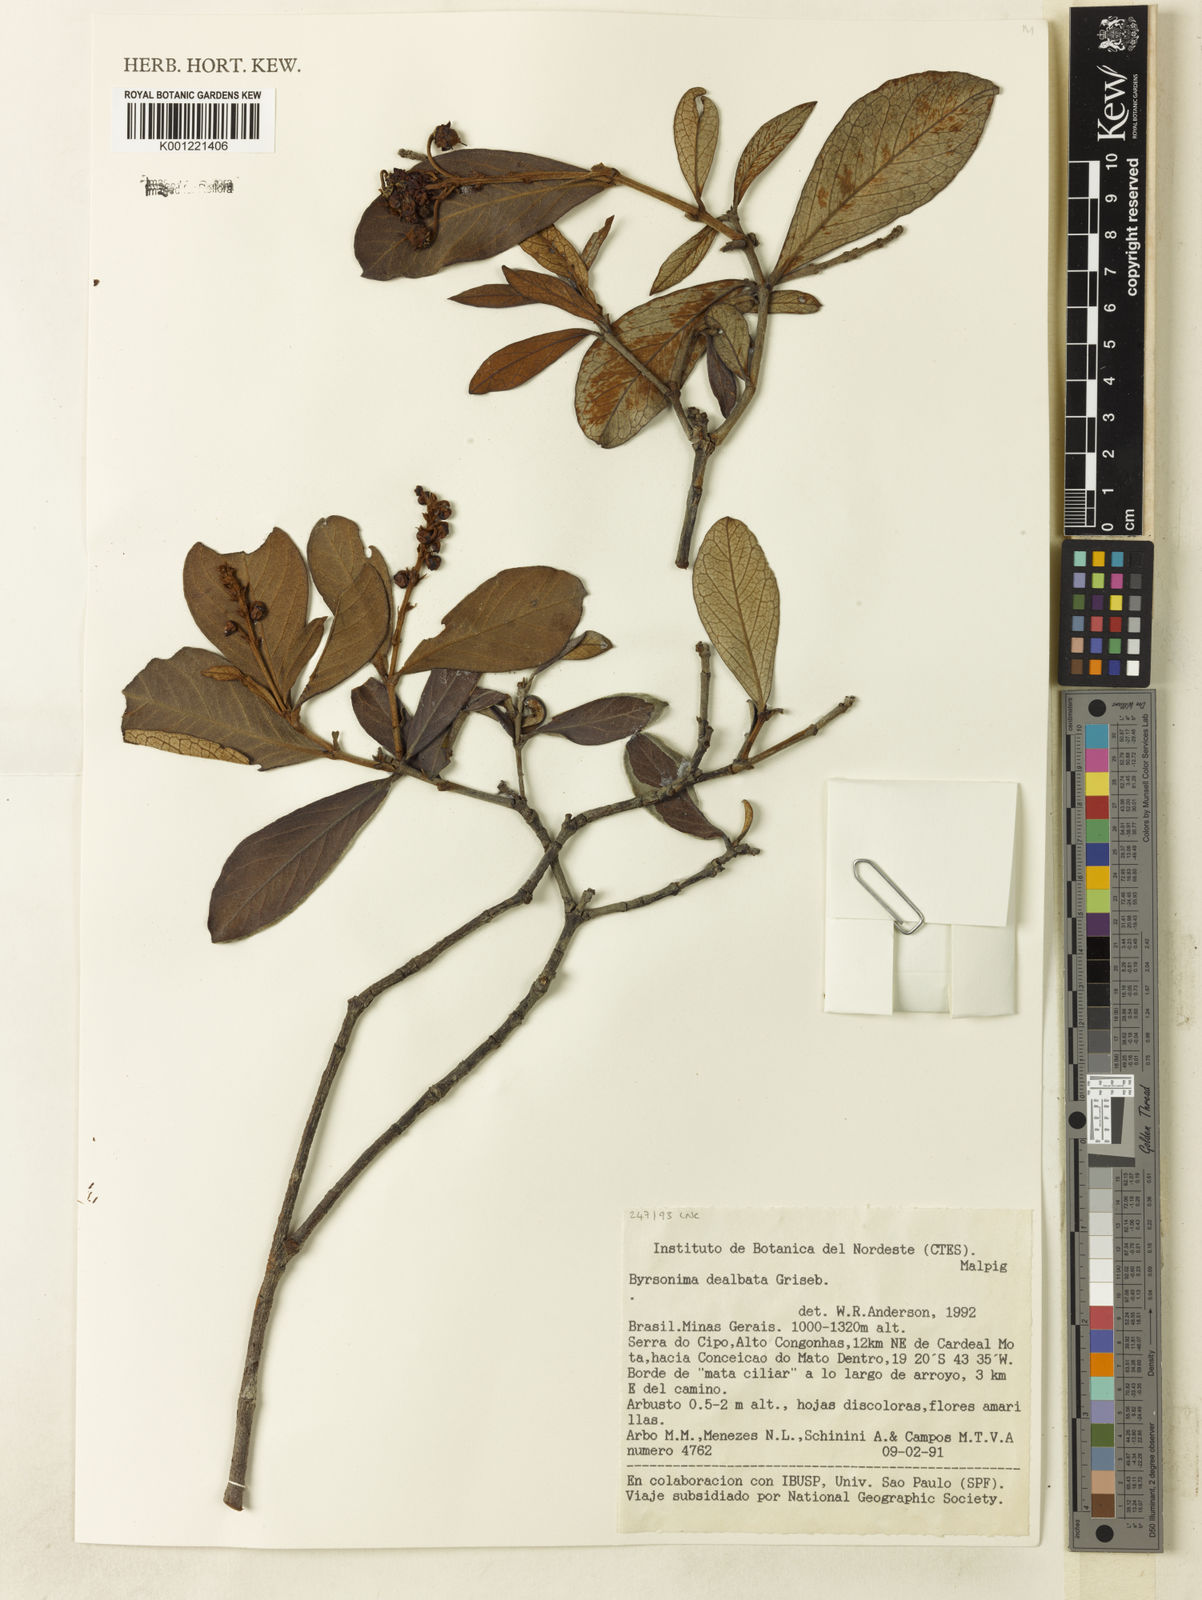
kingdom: Plantae
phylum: Tracheophyta
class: Magnoliopsida
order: Malpighiales
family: Malpighiaceae
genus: Byrsonima
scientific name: Byrsonima dealbata
